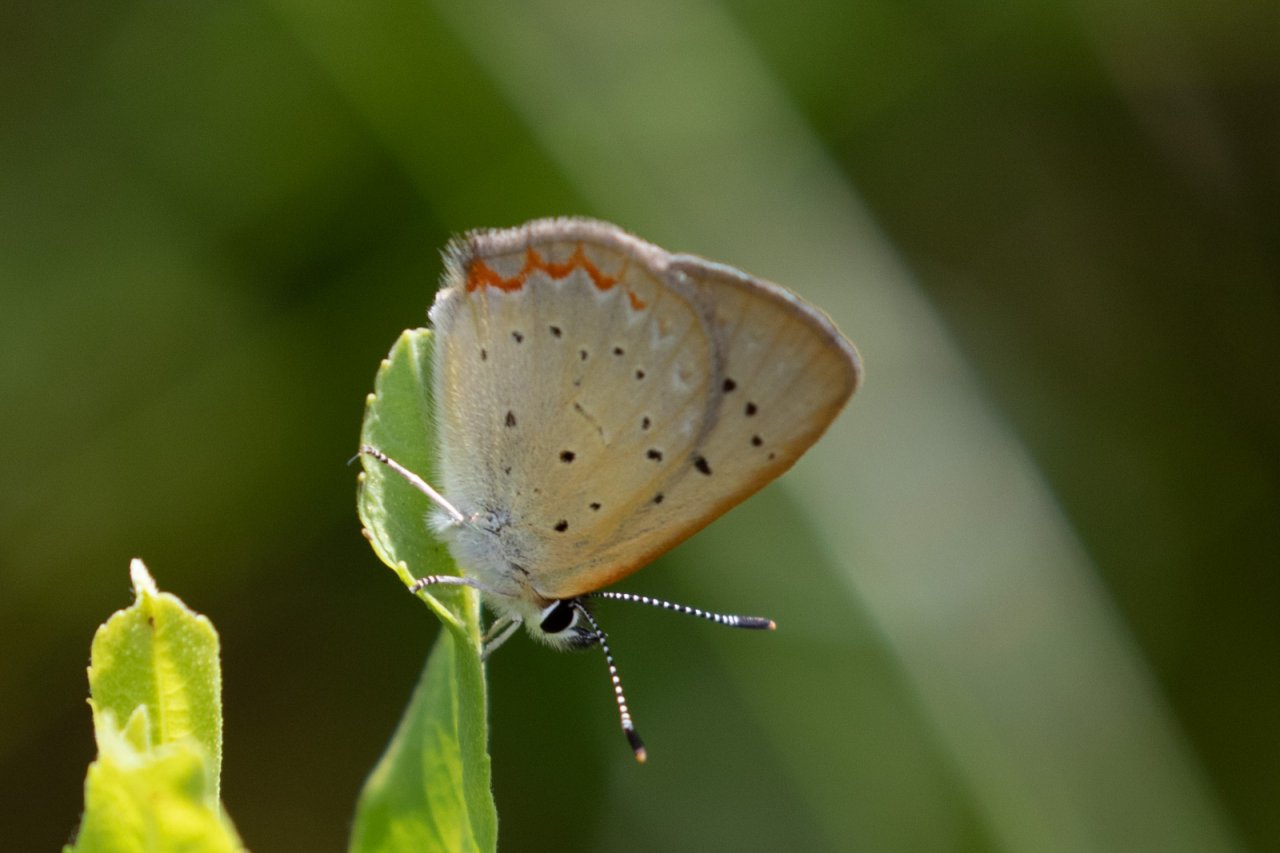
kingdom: Animalia
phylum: Arthropoda
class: Insecta
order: Lepidoptera
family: Sesiidae
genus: Sesia
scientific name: Sesia Lycaena epixanthe
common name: Bog Copper
